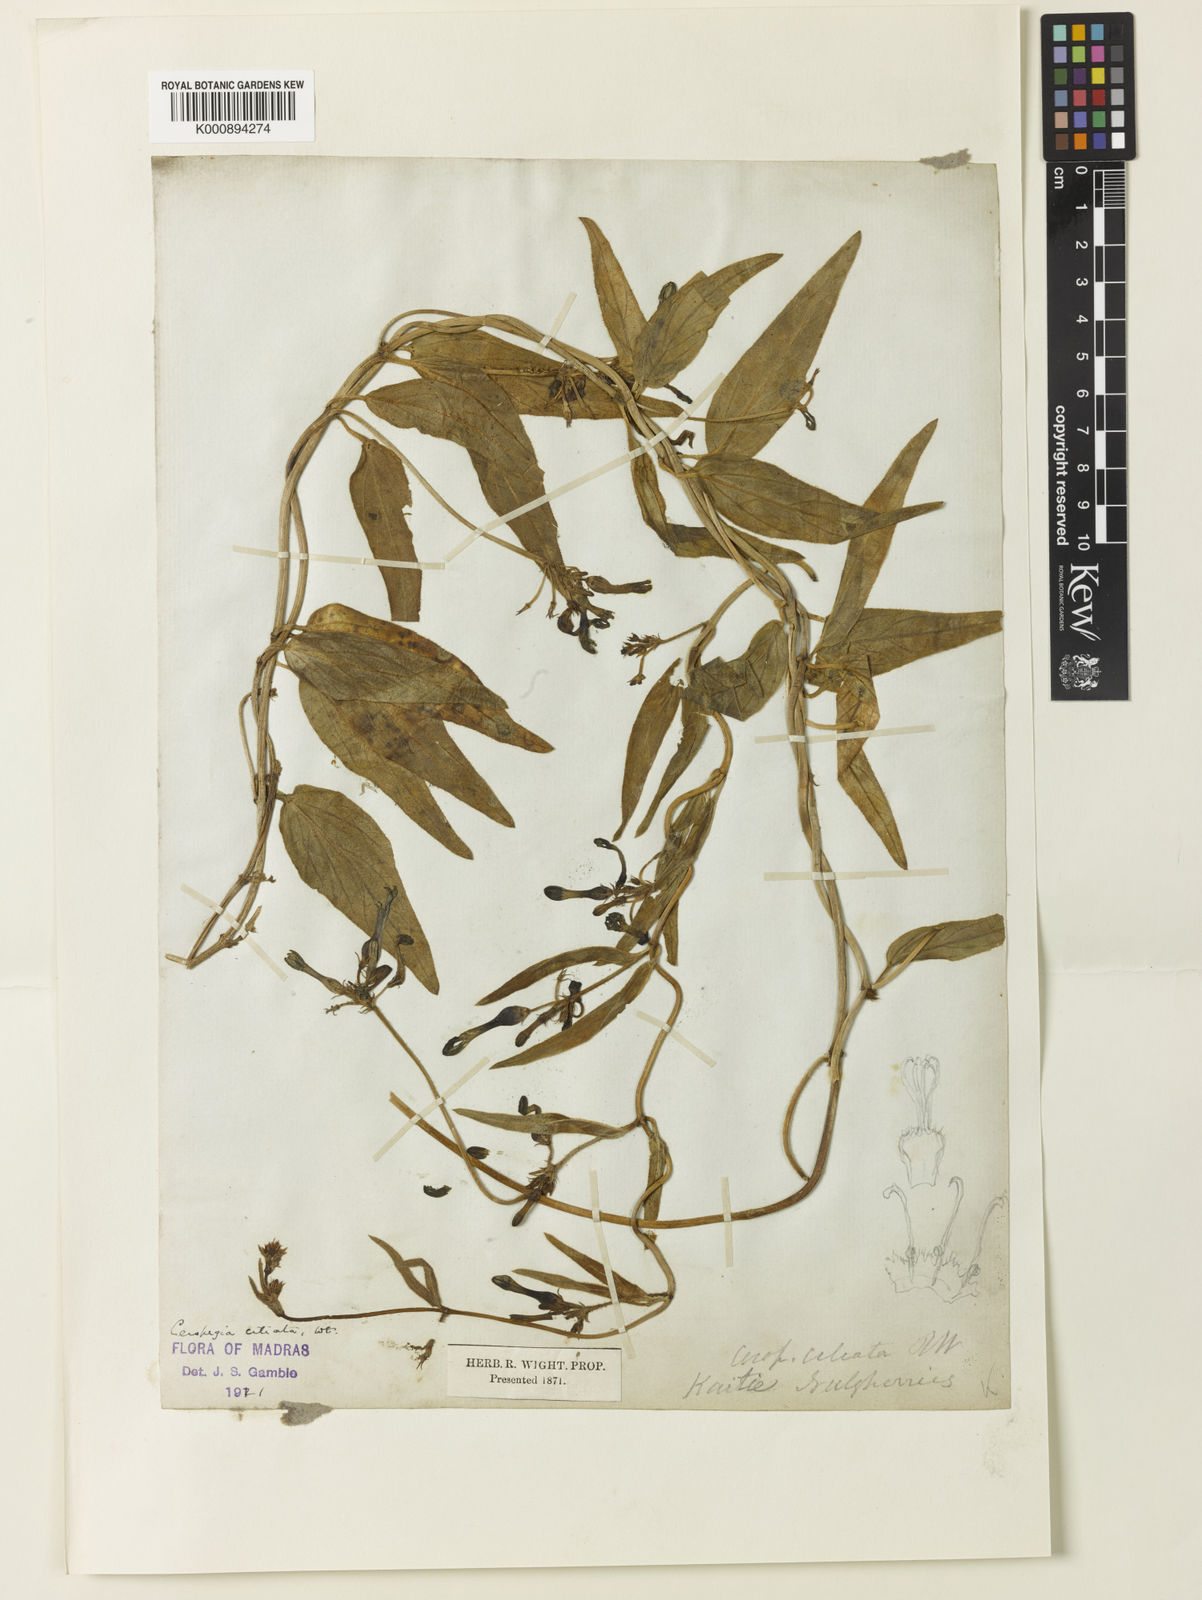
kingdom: Plantae
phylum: Tracheophyta
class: Magnoliopsida
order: Gentianales
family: Apocynaceae
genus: Ceropegia
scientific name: Ceropegia ciliata
